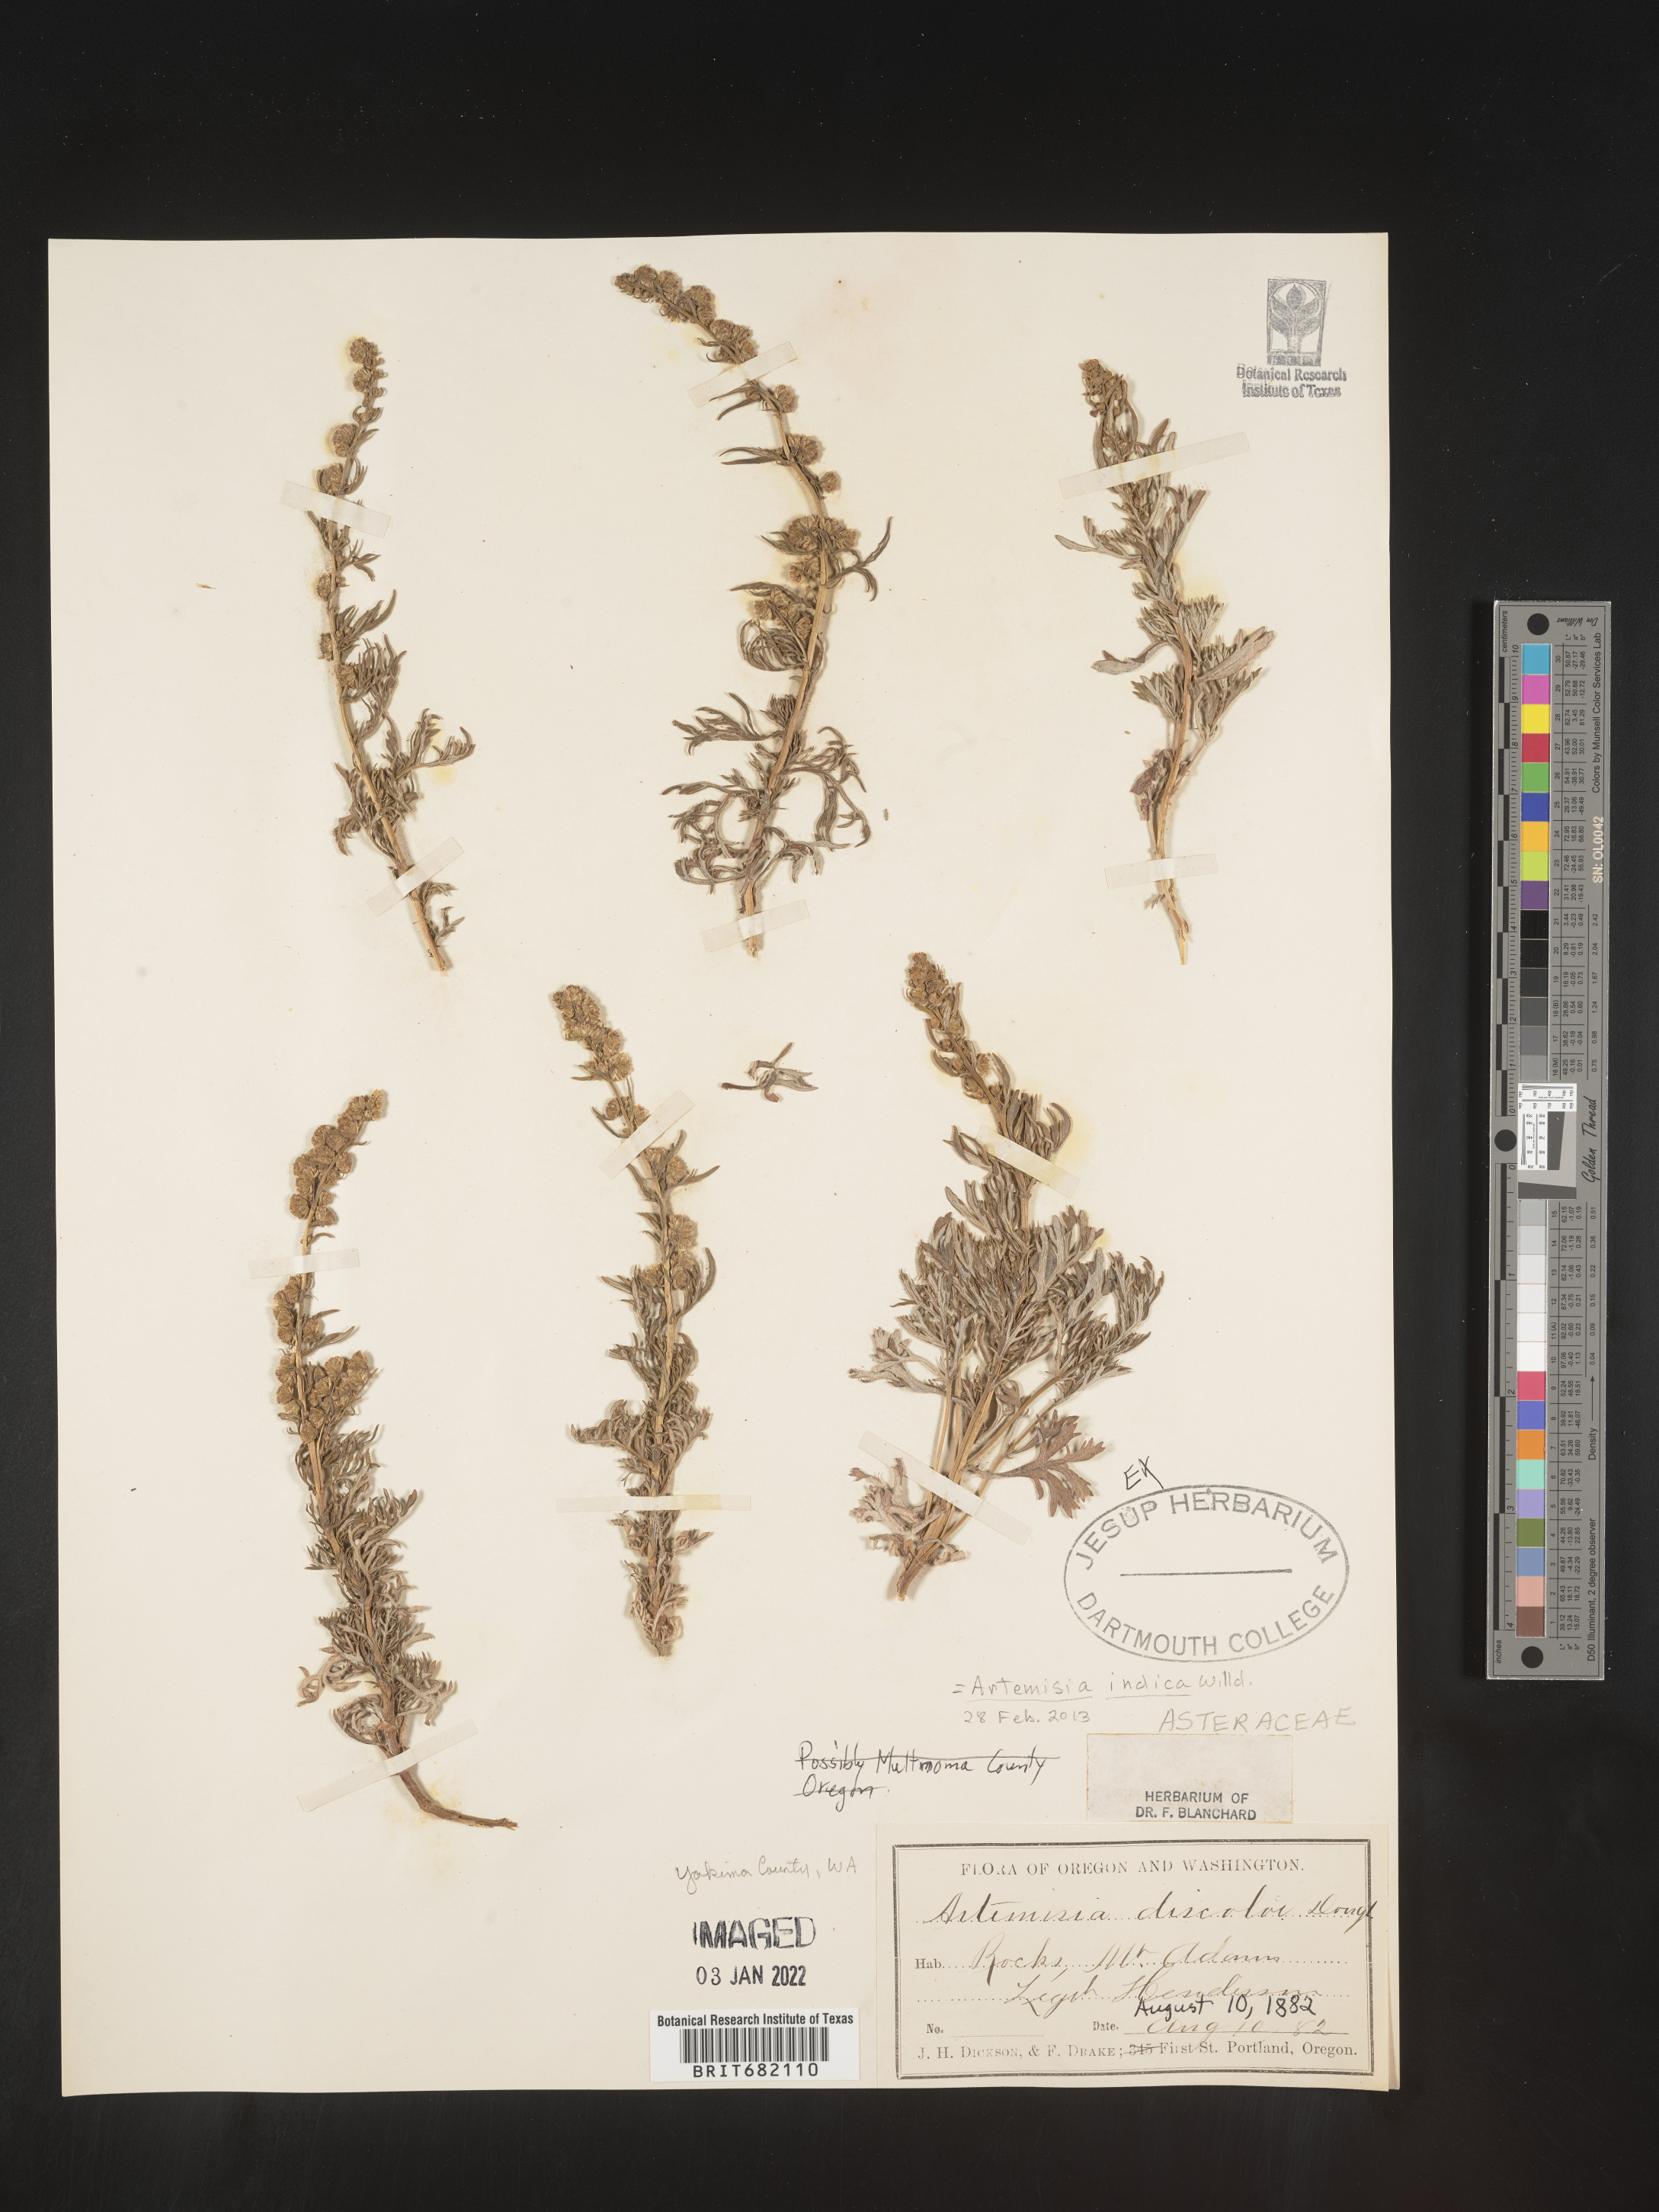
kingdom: Plantae
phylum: Tracheophyta
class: Magnoliopsida
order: Asterales
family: Asteraceae
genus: Artemisia
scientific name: Artemisia indica
